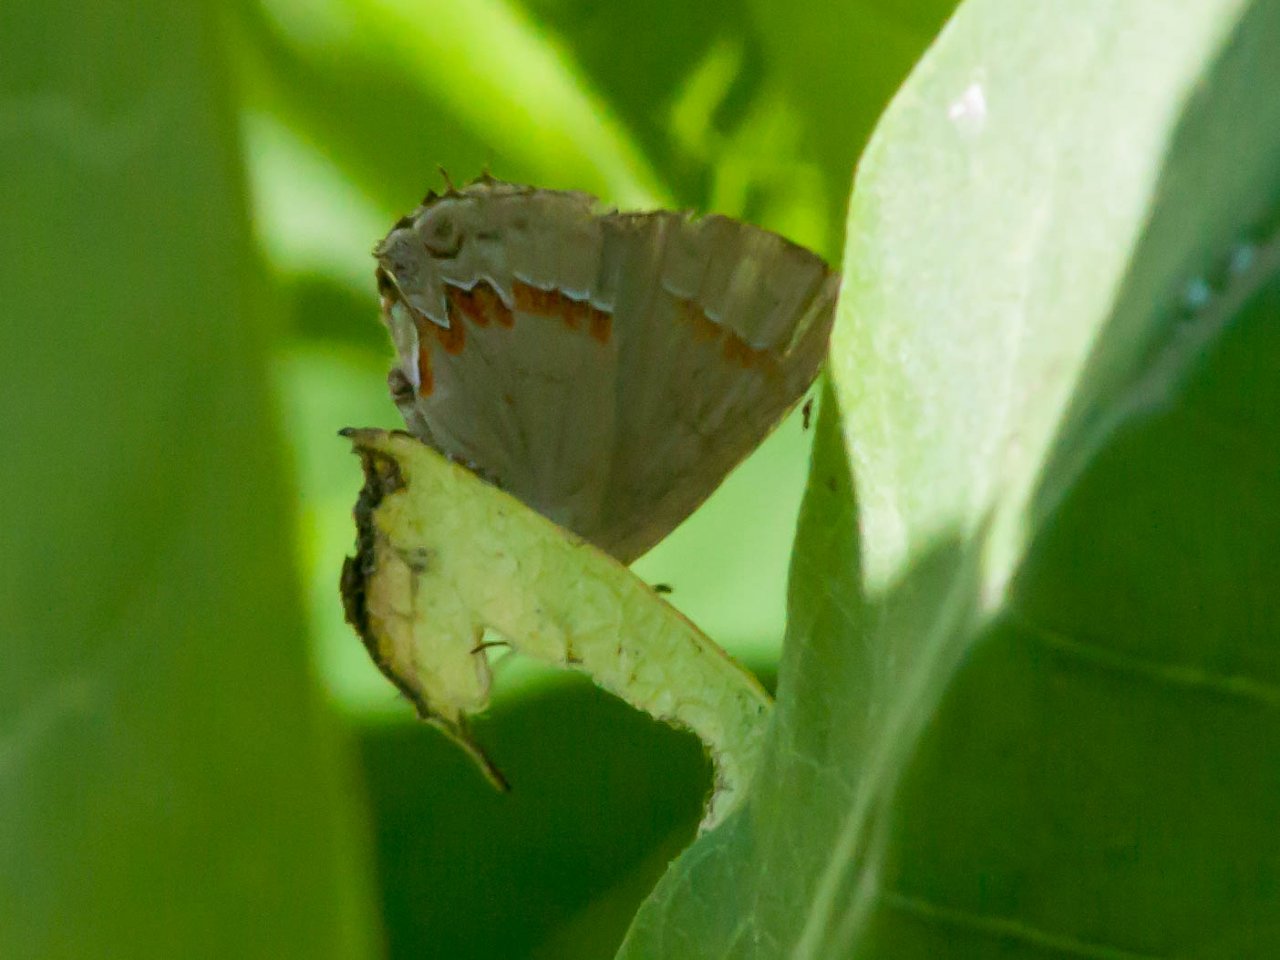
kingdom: Animalia
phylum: Arthropoda
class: Insecta
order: Lepidoptera
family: Lycaenidae
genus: Calycopis
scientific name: Calycopis cecrops
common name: Red-banded Hairstreak
